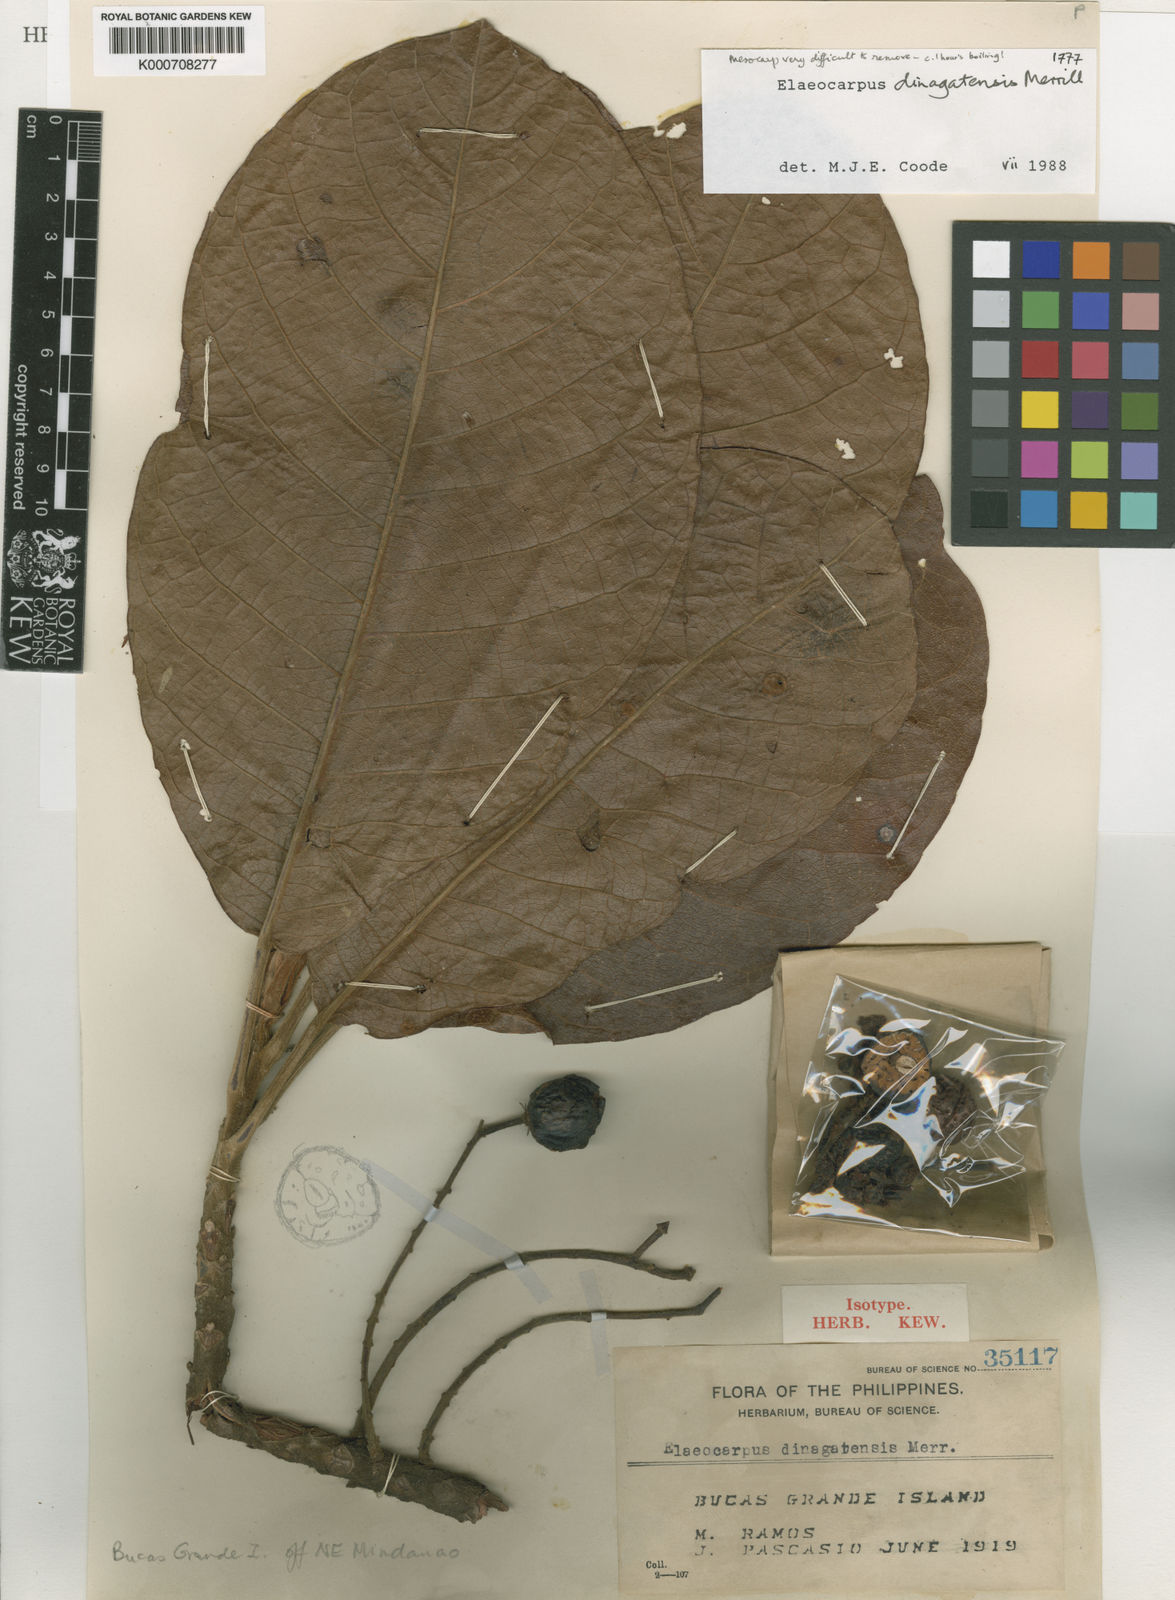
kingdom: Plantae
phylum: Tracheophyta
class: Magnoliopsida
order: Oxalidales
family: Elaeocarpaceae
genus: Elaeocarpus
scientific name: Elaeocarpus dinagatensis
